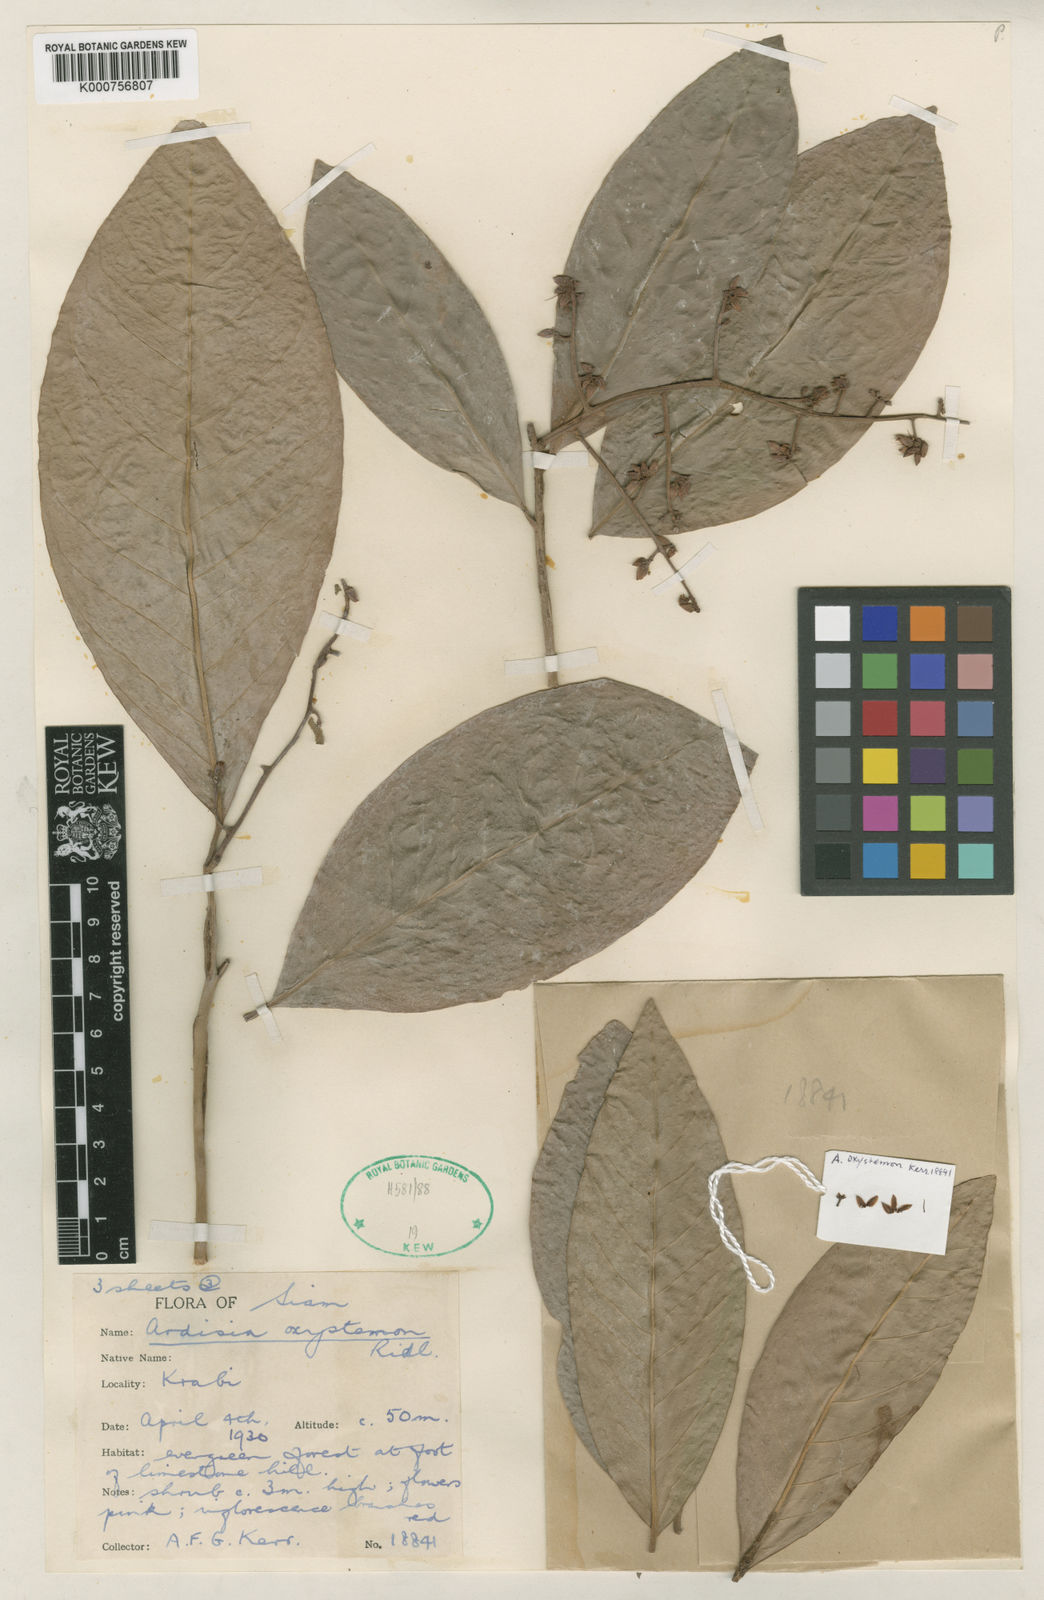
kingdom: Plantae
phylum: Tracheophyta
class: Magnoliopsida
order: Ericales
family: Primulaceae
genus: Ardisia
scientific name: Ardisia rigida
